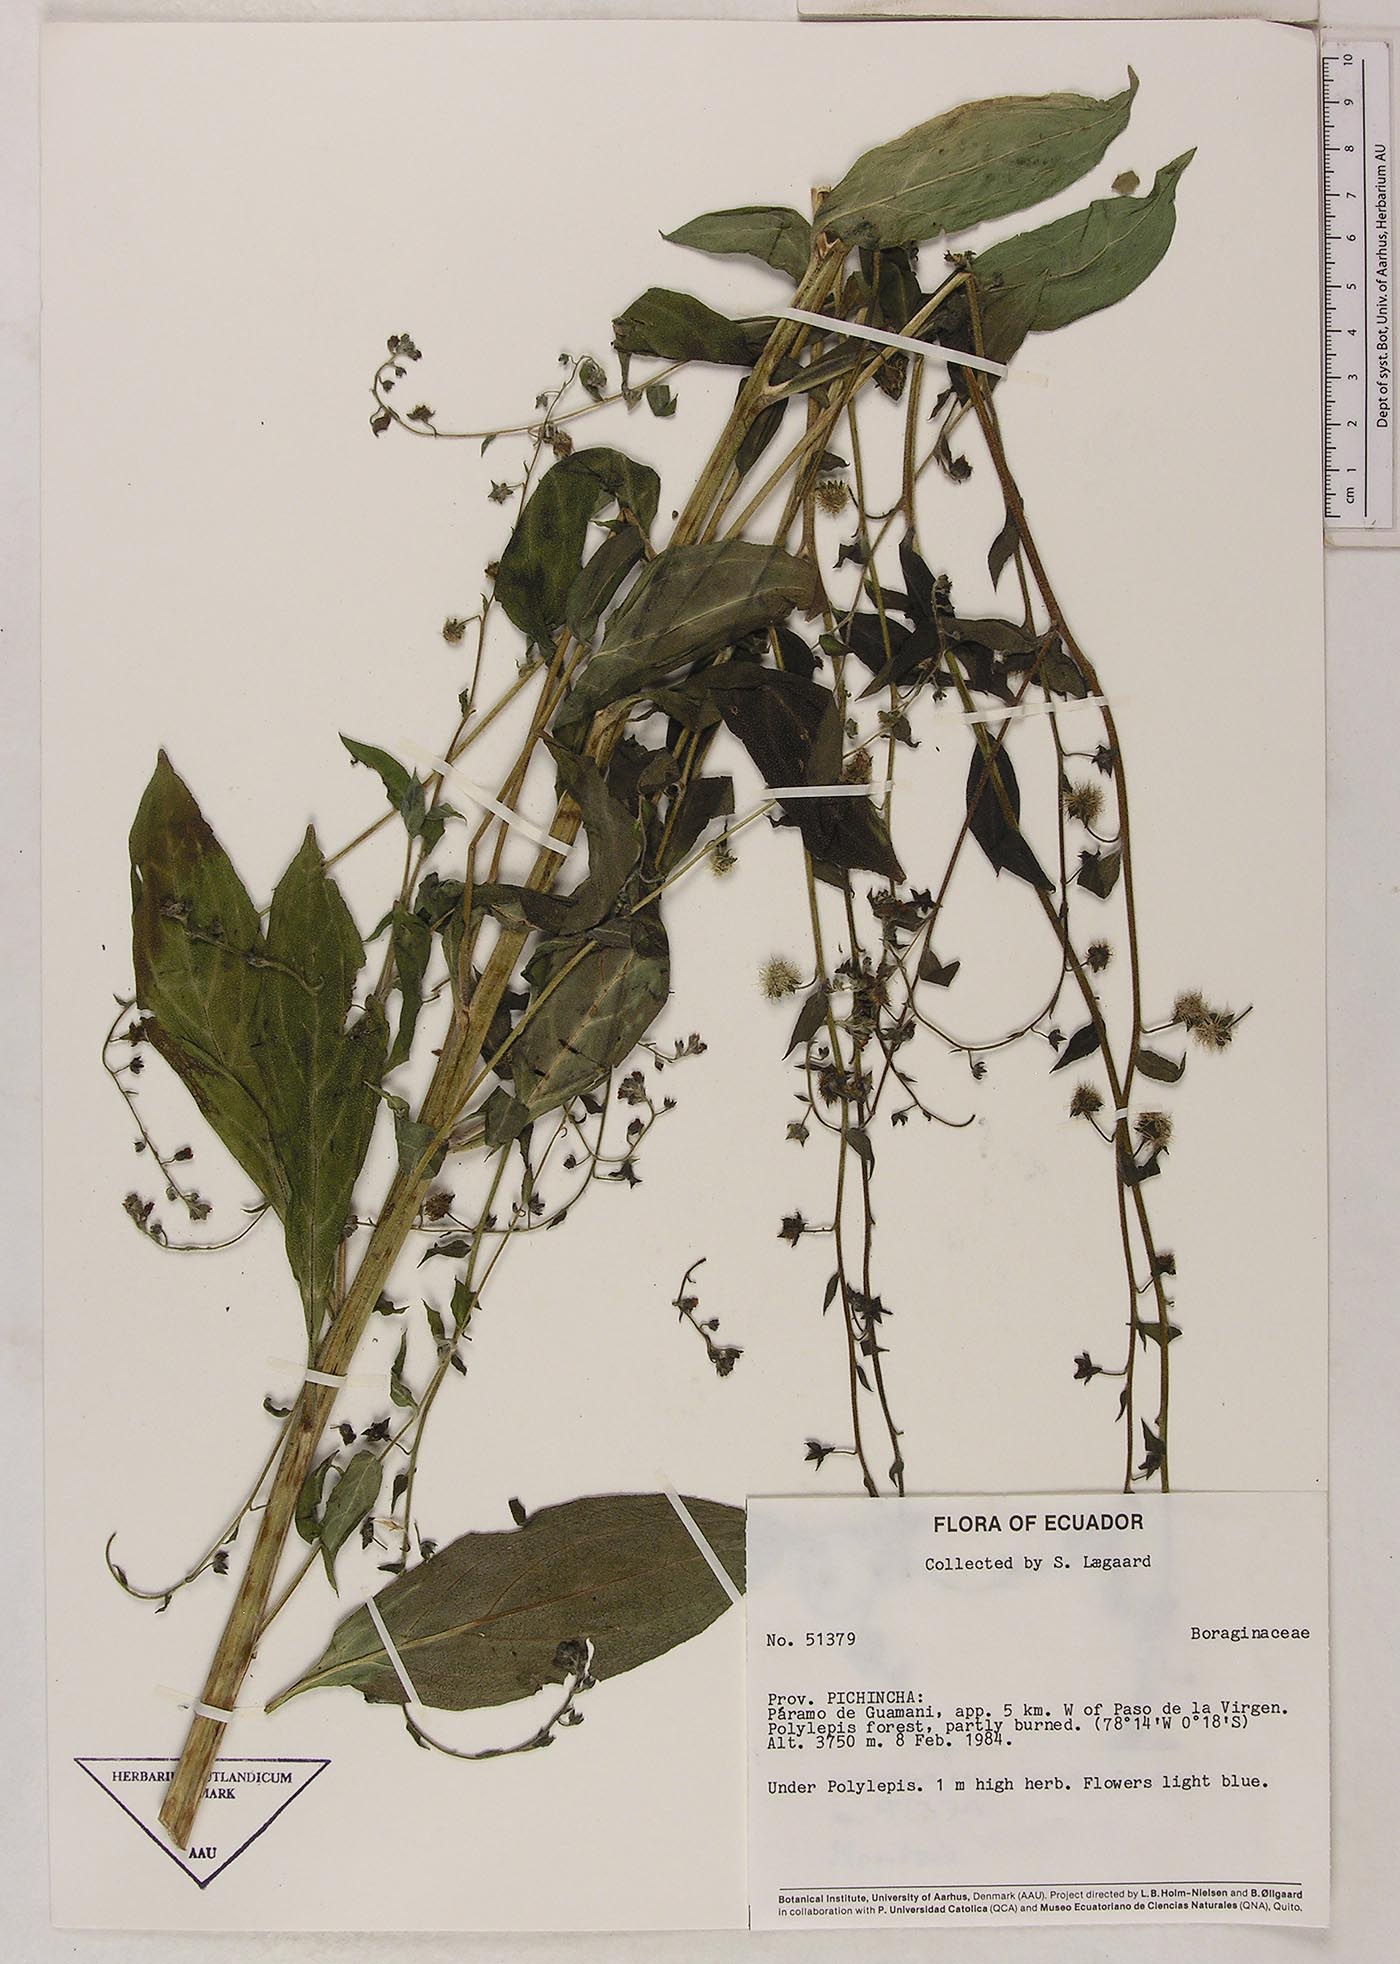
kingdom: Plantae
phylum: Tracheophyta
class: Magnoliopsida
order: Boraginales
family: Boraginaceae
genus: Hackelia
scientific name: Hackelia revoluta
